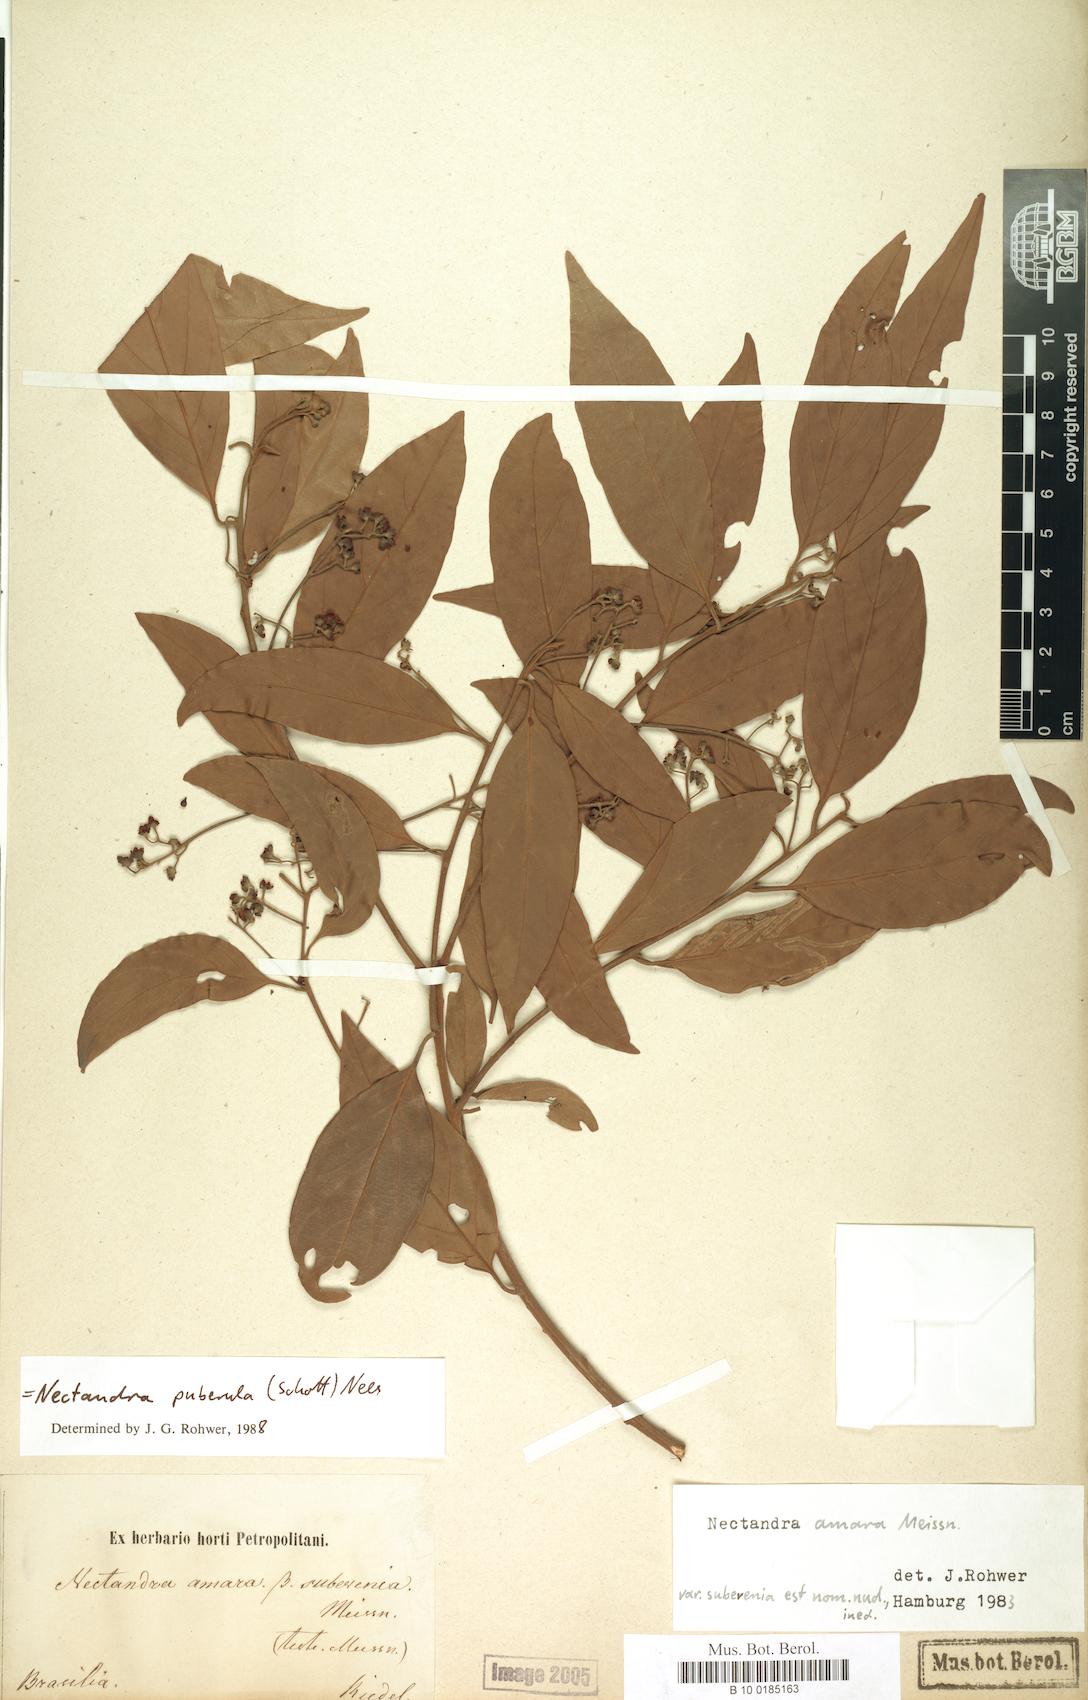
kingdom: Plantae
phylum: Tracheophyta
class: Magnoliopsida
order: Laurales
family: Lauraceae
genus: Nectandra
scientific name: Nectandra puberula
